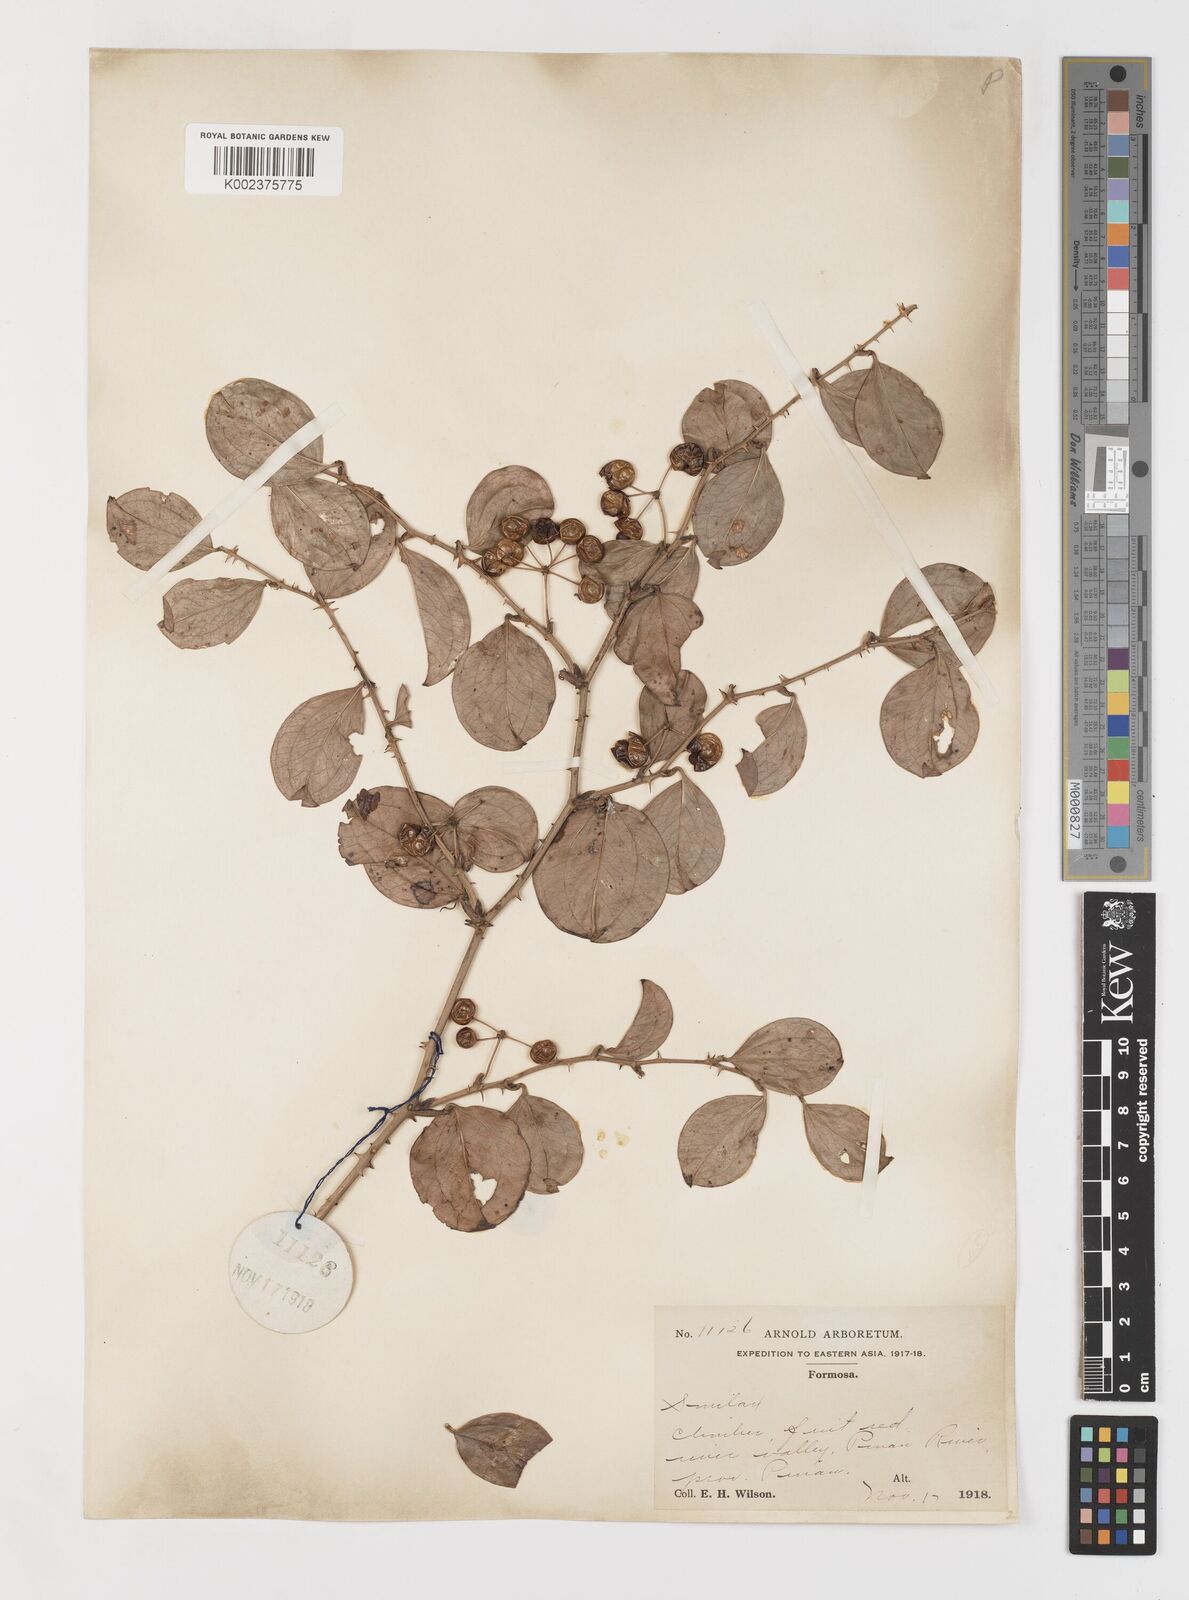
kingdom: Plantae
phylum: Tracheophyta
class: Liliopsida
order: Liliales
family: Smilacaceae
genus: Smilax
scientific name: Smilax china
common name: Chinaroot
